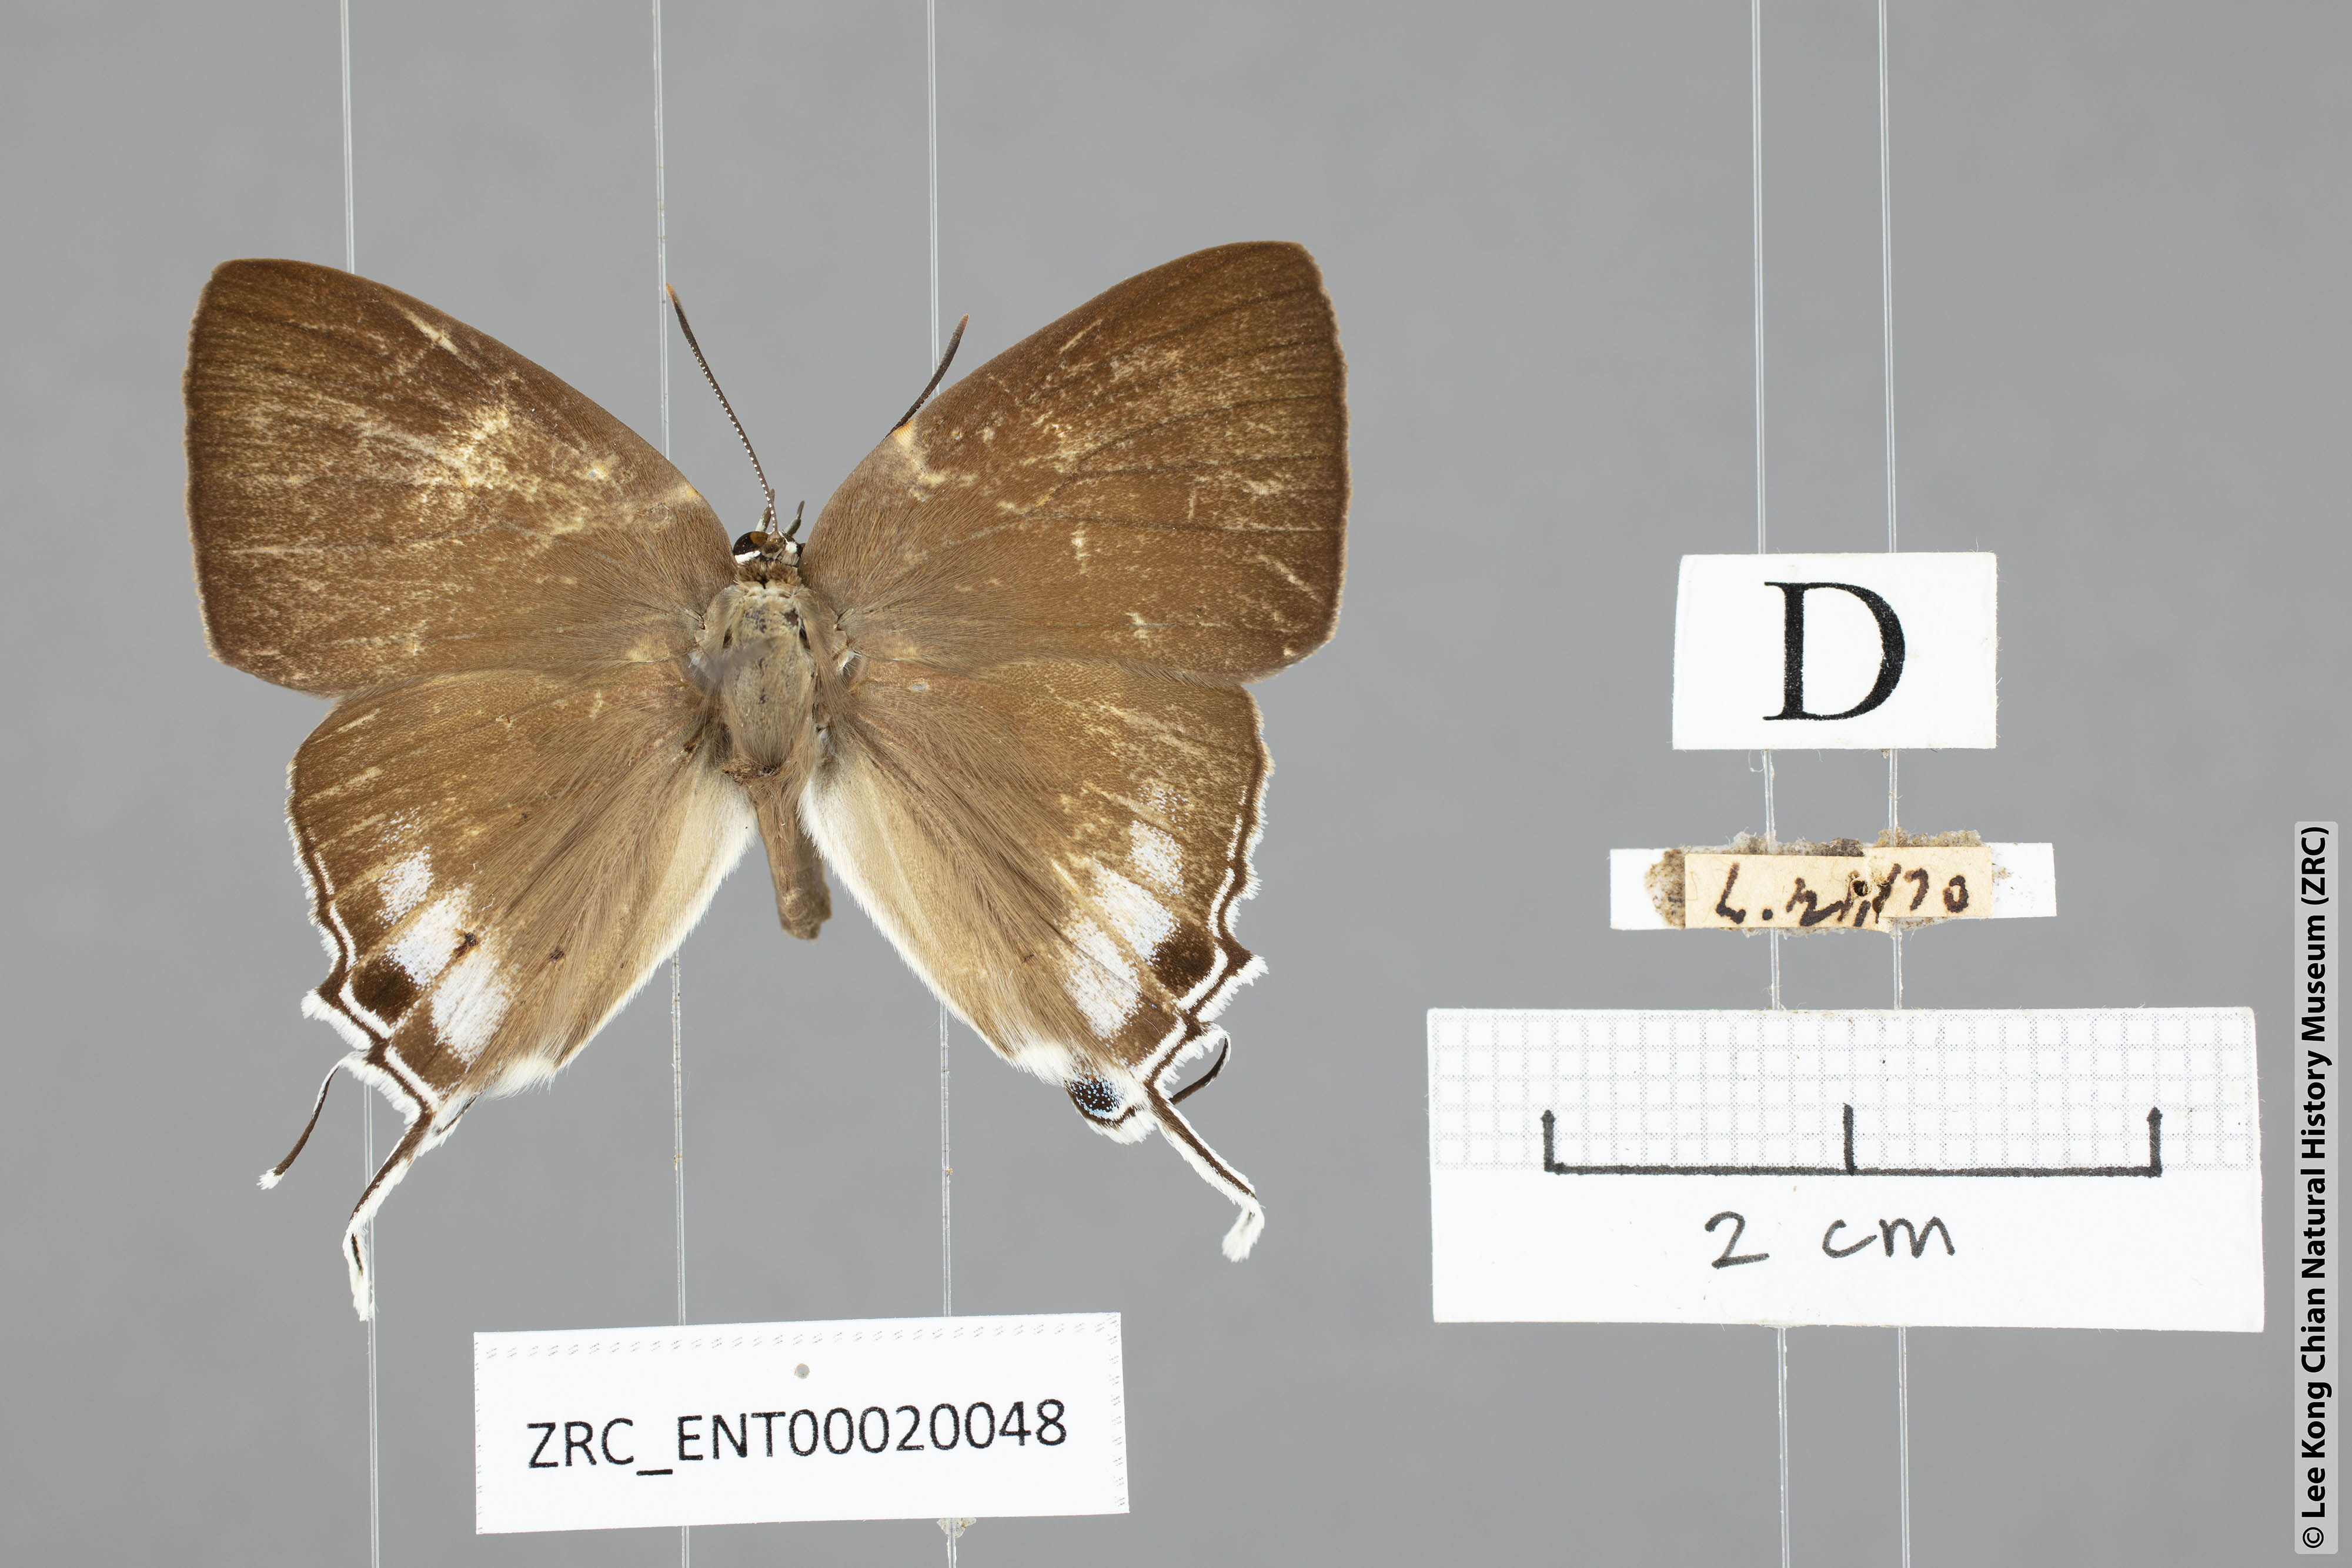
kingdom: Animalia
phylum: Arthropoda
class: Insecta
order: Lepidoptera
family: Hesperiidae
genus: Rachana
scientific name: Rachana jalindra
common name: Banded royal
